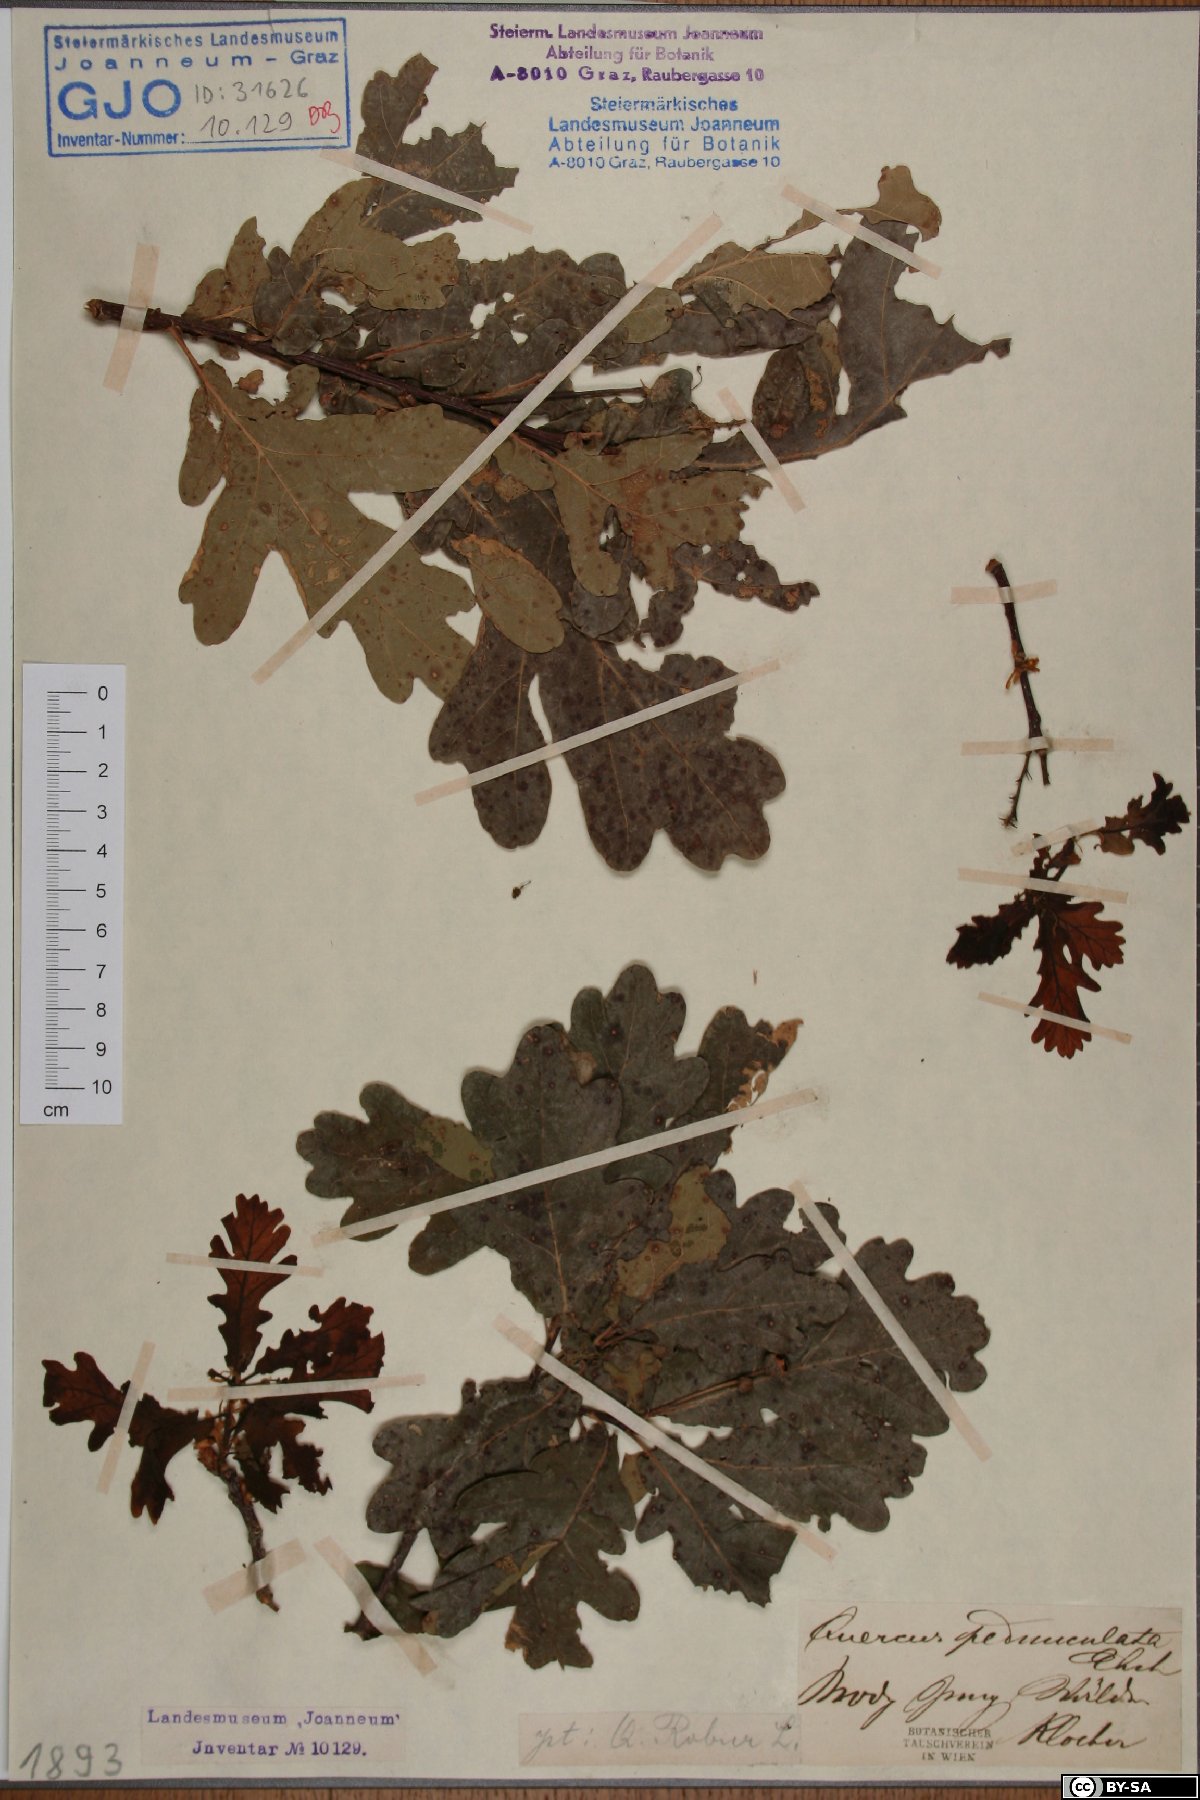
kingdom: Plantae
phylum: Tracheophyta
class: Magnoliopsida
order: Fagales
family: Fagaceae
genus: Quercus
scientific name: Quercus robur
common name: Pedunculate oak
